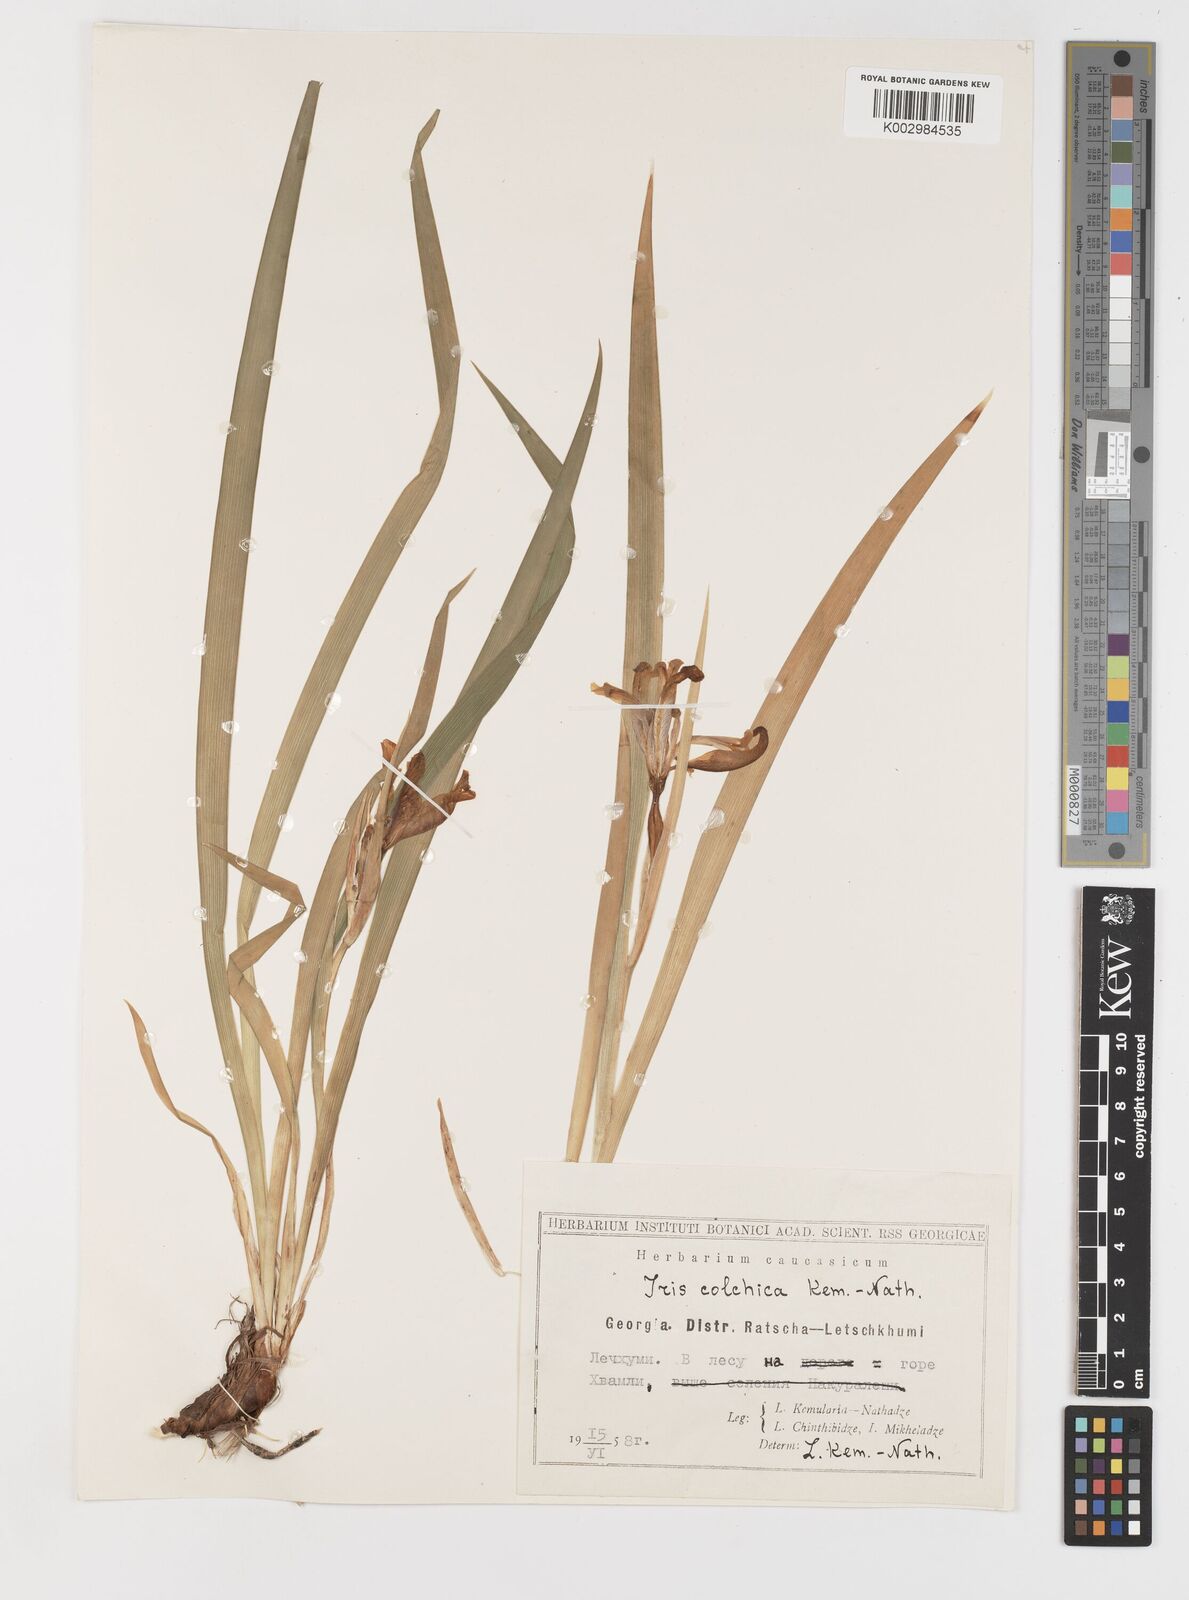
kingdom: Plantae
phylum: Tracheophyta
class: Liliopsida
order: Asparagales
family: Iridaceae
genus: Iris
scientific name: Iris colchica
